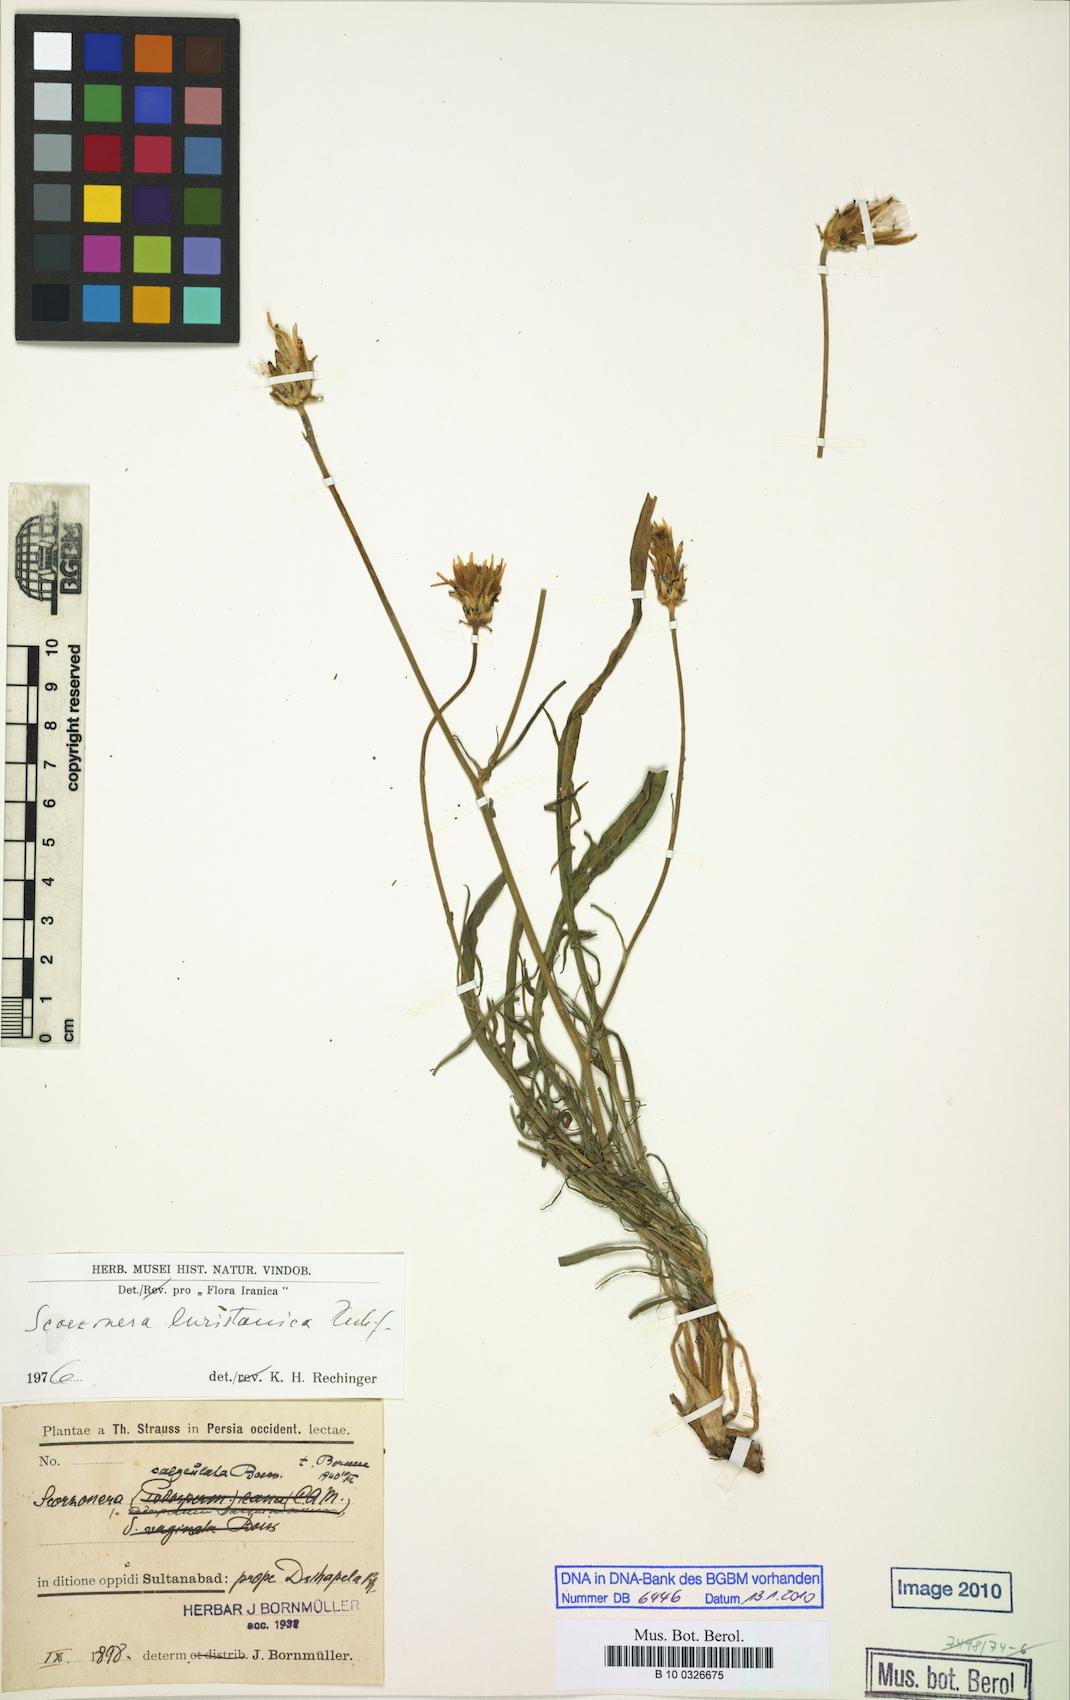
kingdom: Plantae
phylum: Tracheophyta
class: Magnoliopsida
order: Asterales
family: Asteraceae
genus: Scorzonera
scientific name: Scorzonera persepolitana
